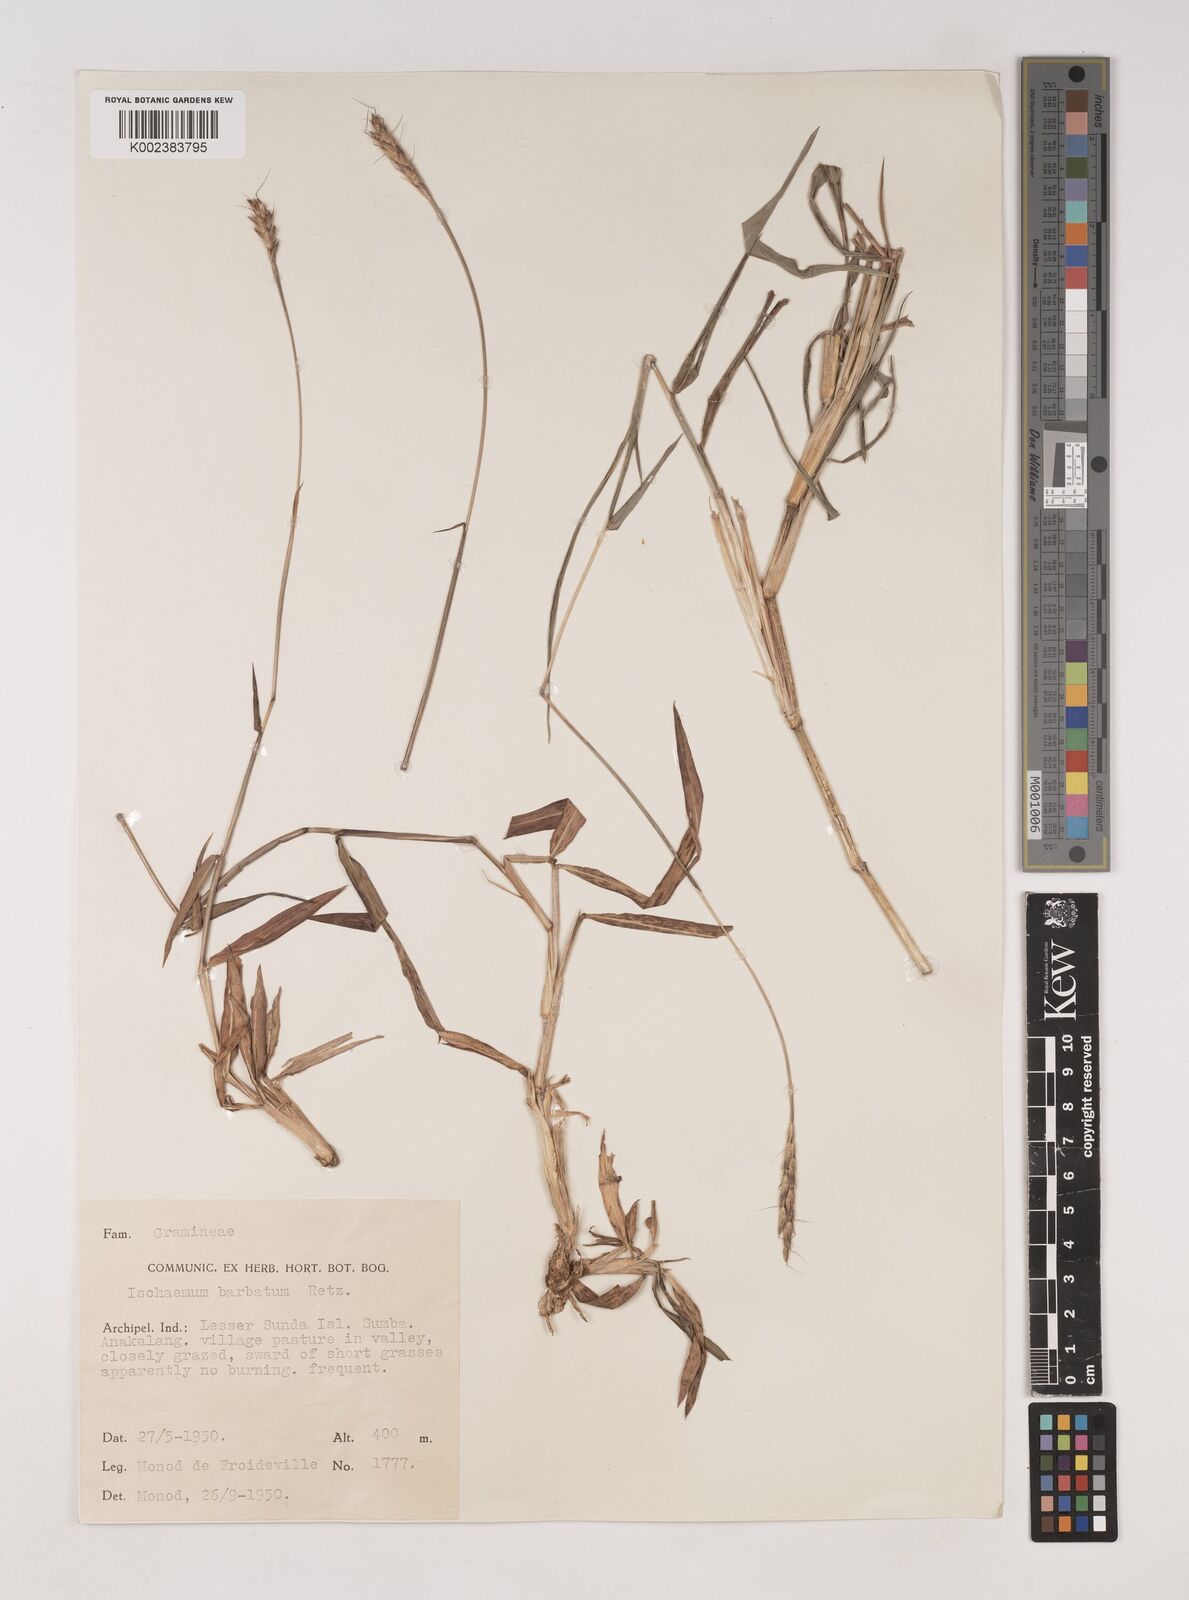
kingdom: Plantae
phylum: Tracheophyta
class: Liliopsida
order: Poales
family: Poaceae
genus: Ischaemum
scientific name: Ischaemum barbatum
